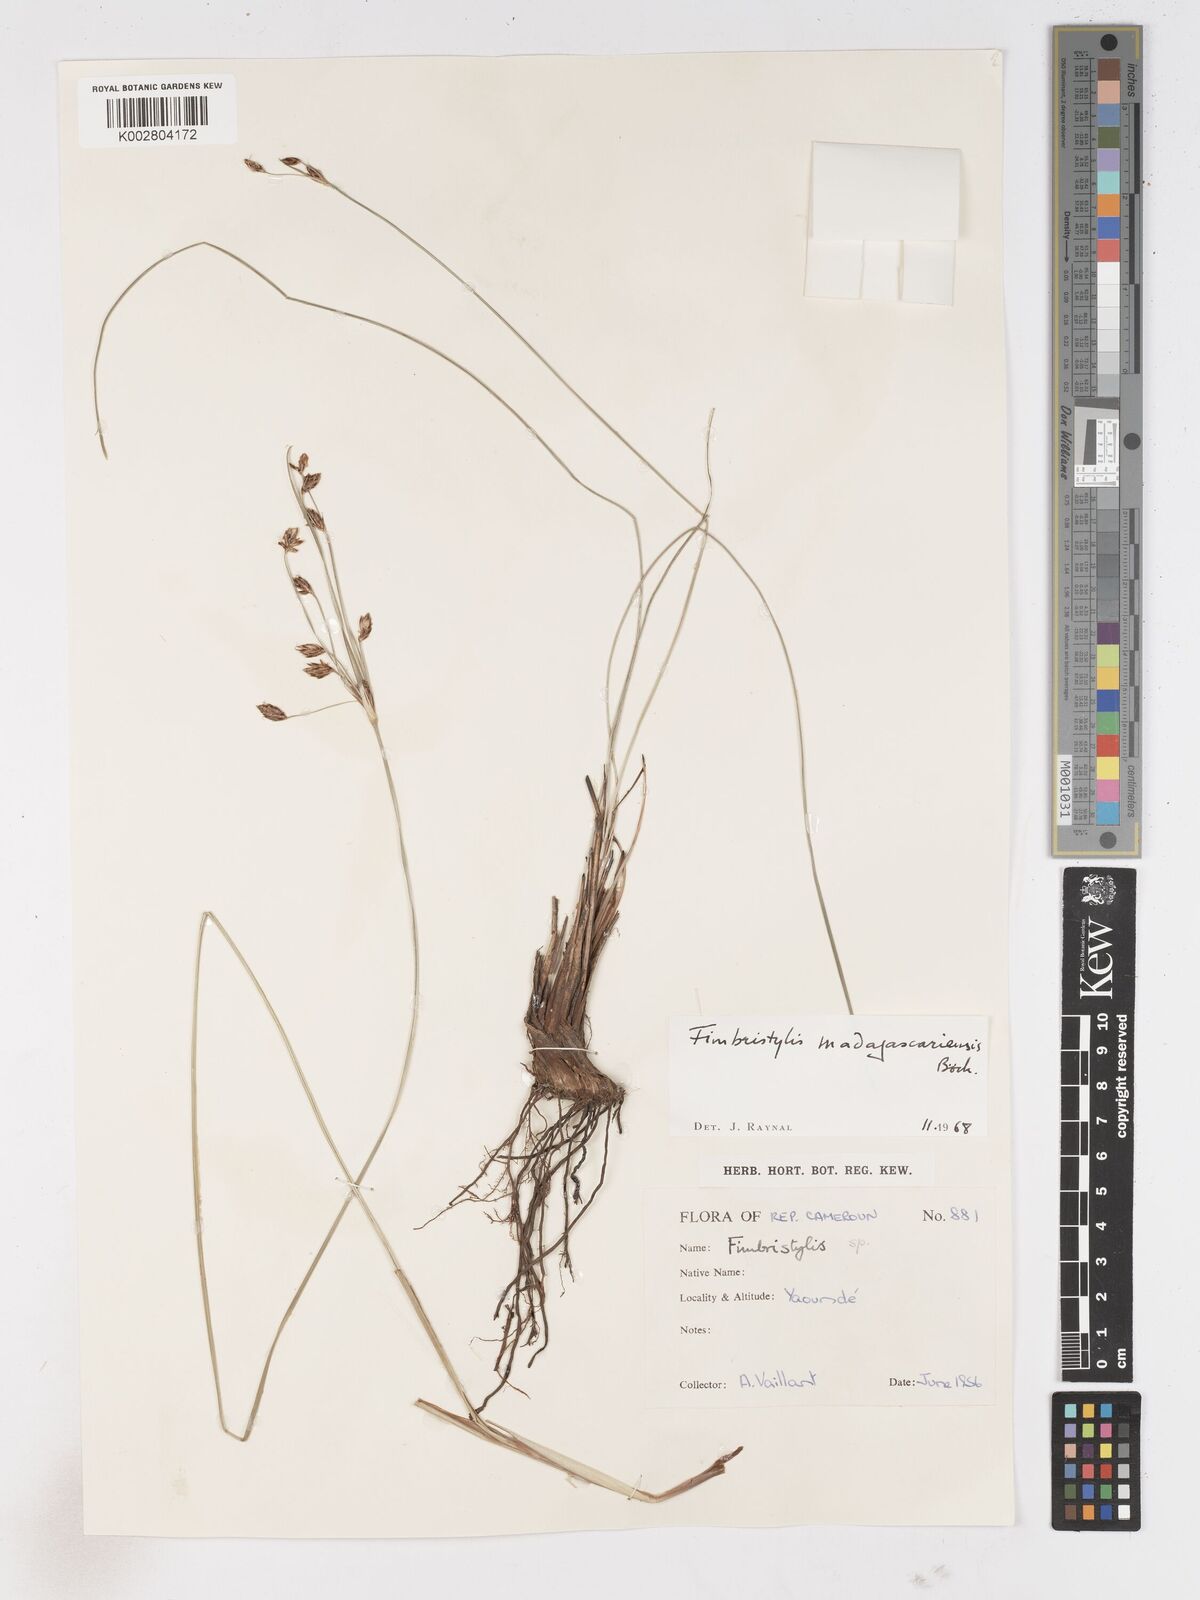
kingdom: Plantae
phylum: Tracheophyta
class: Liliopsida
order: Poales
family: Cyperaceae
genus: Fimbristylis
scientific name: Fimbristylis madagascariensis
